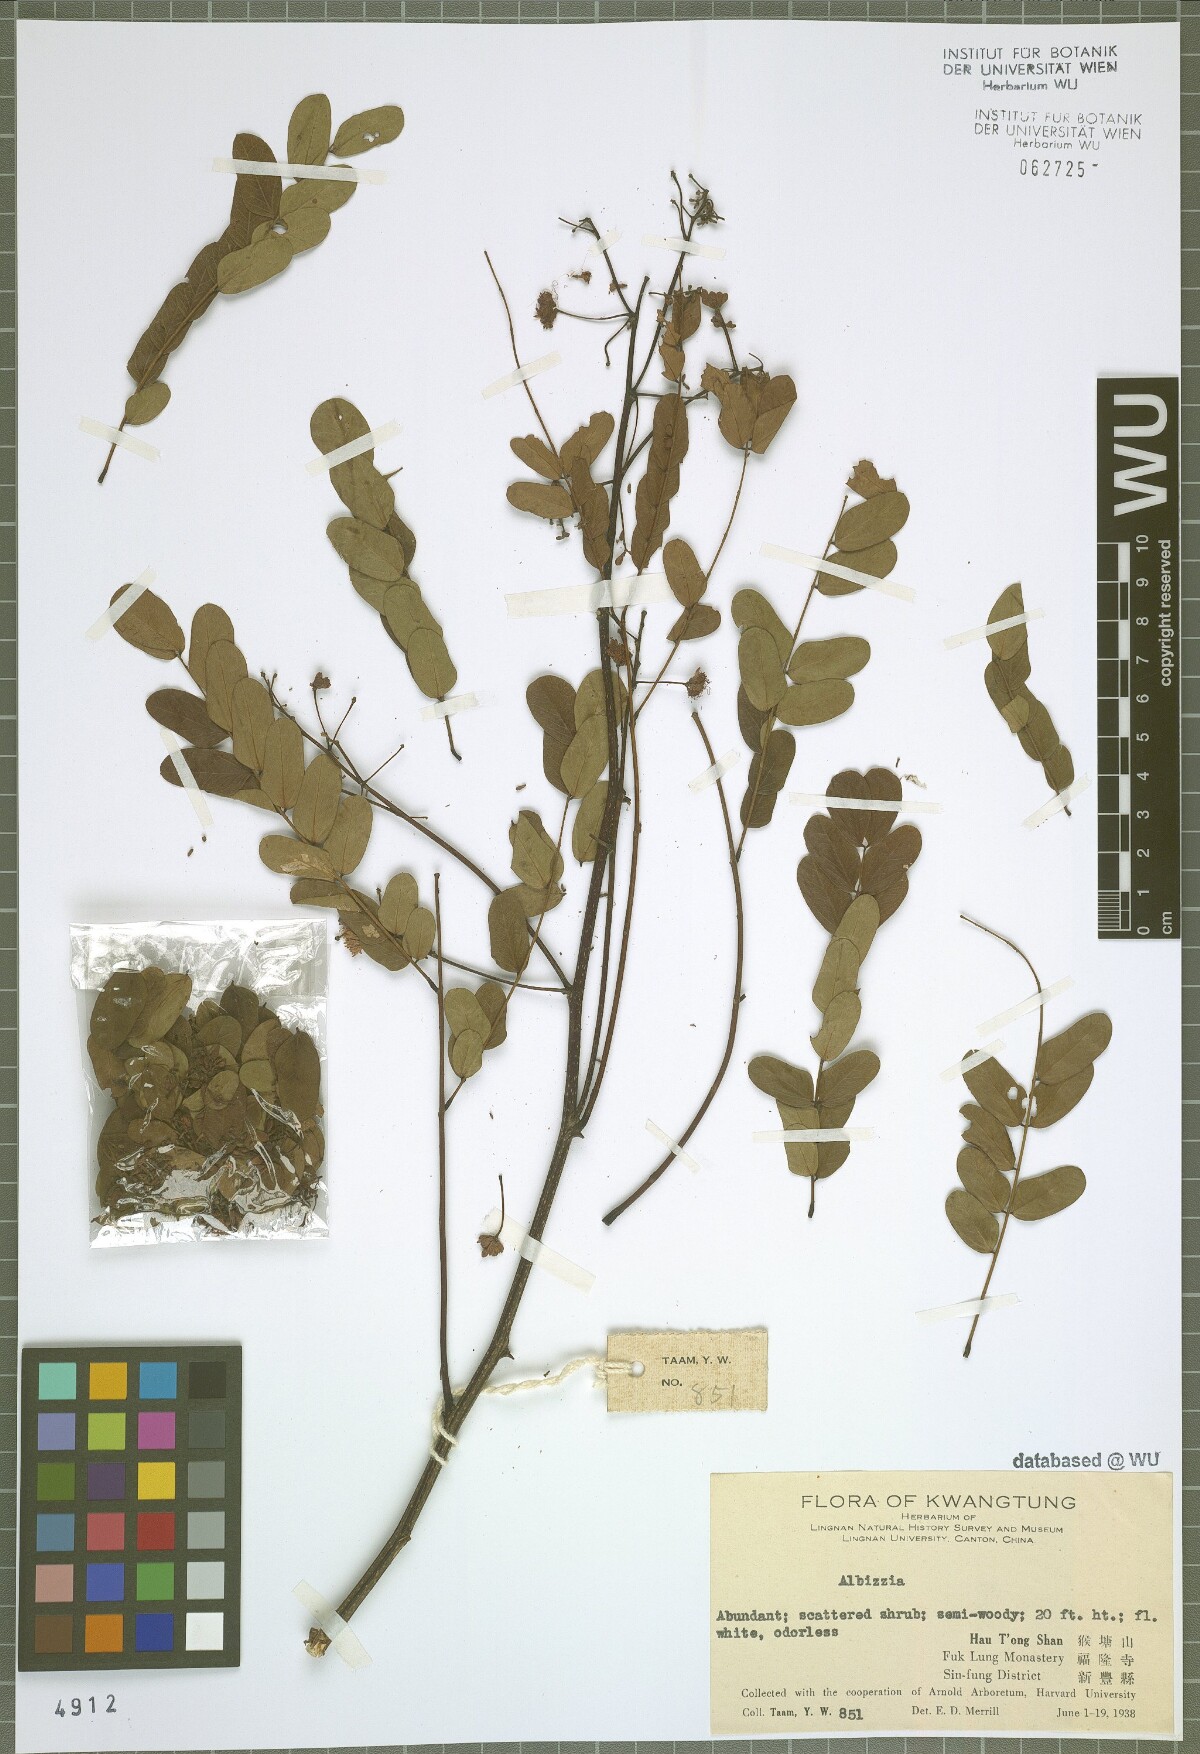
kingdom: Plantae
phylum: Tracheophyta
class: Magnoliopsida
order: Fabales
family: Fabaceae
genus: Albizia
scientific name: Albizia
